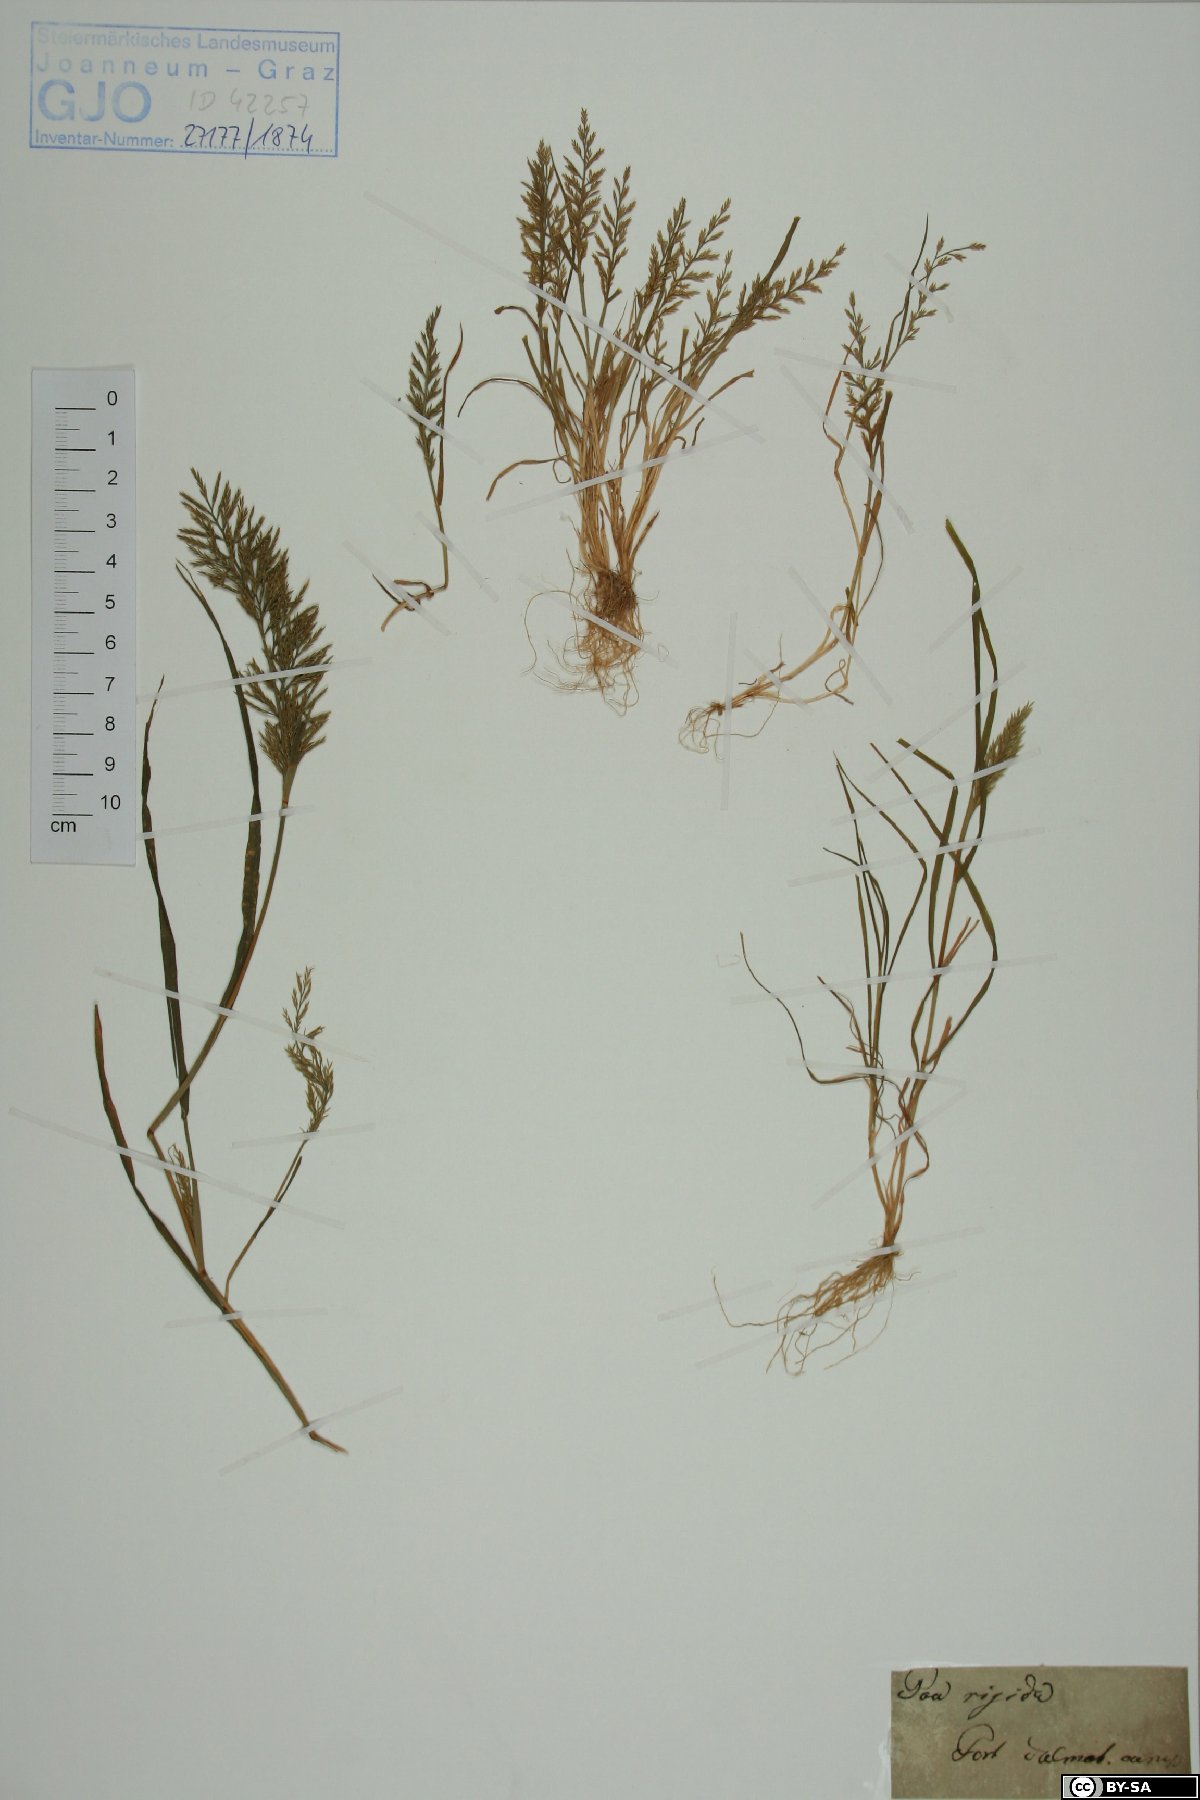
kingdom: Plantae
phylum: Tracheophyta
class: Liliopsida
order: Poales
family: Poaceae
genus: Catapodium
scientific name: Catapodium rigidum
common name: Fern-grass
